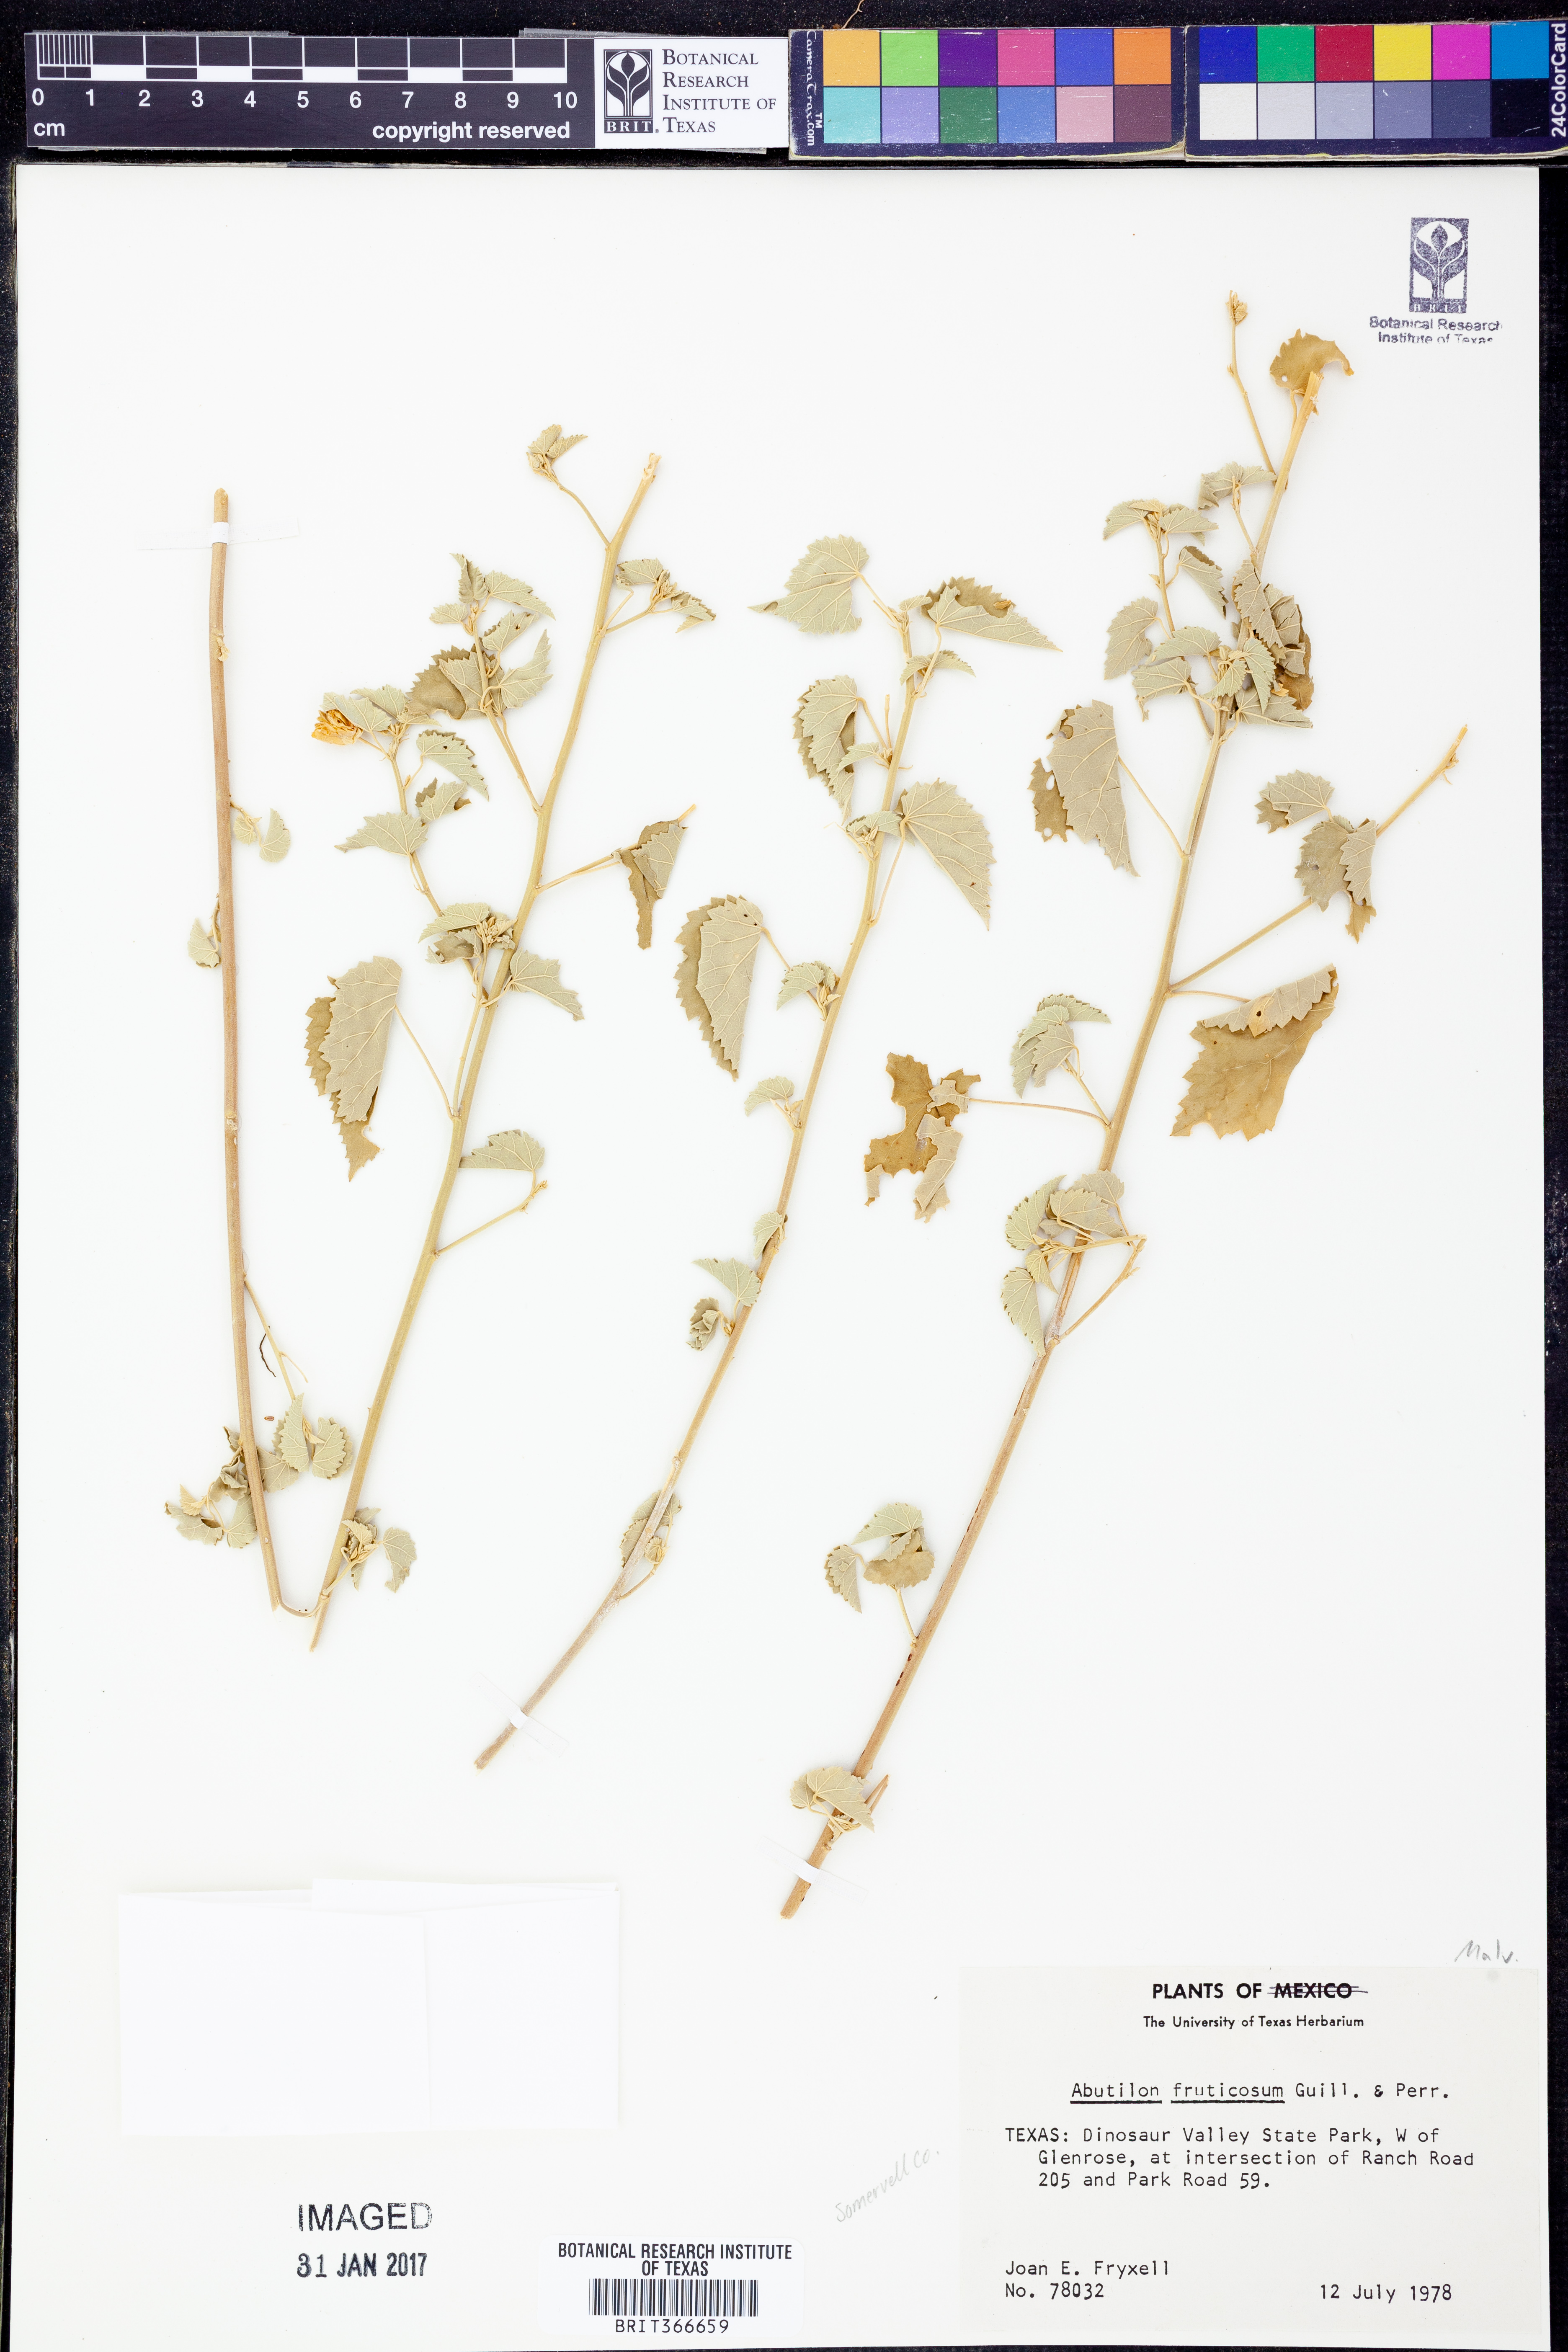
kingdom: Plantae
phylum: Tracheophyta
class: Magnoliopsida
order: Malvales
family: Malvaceae
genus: Abutilon
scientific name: Abutilon fruticosum
